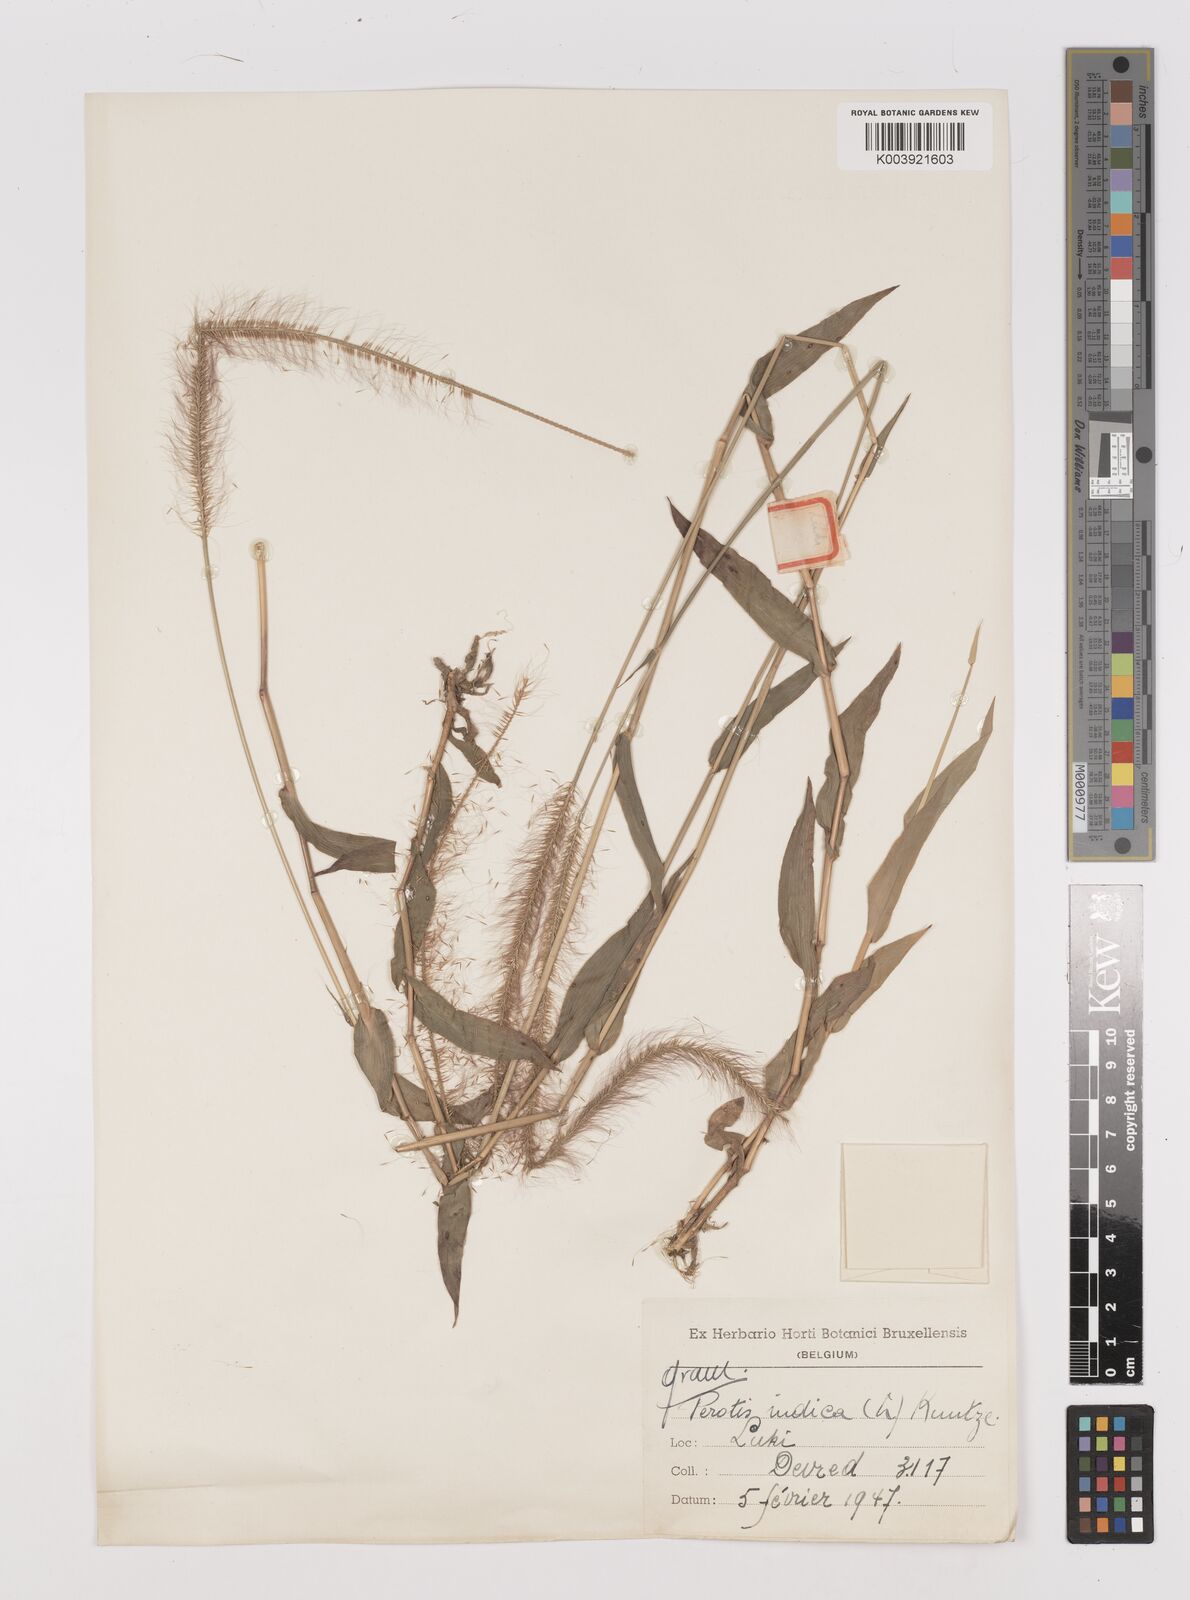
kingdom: Plantae
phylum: Tracheophyta
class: Liliopsida
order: Poales
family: Poaceae
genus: Perotis
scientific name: Perotis patens
